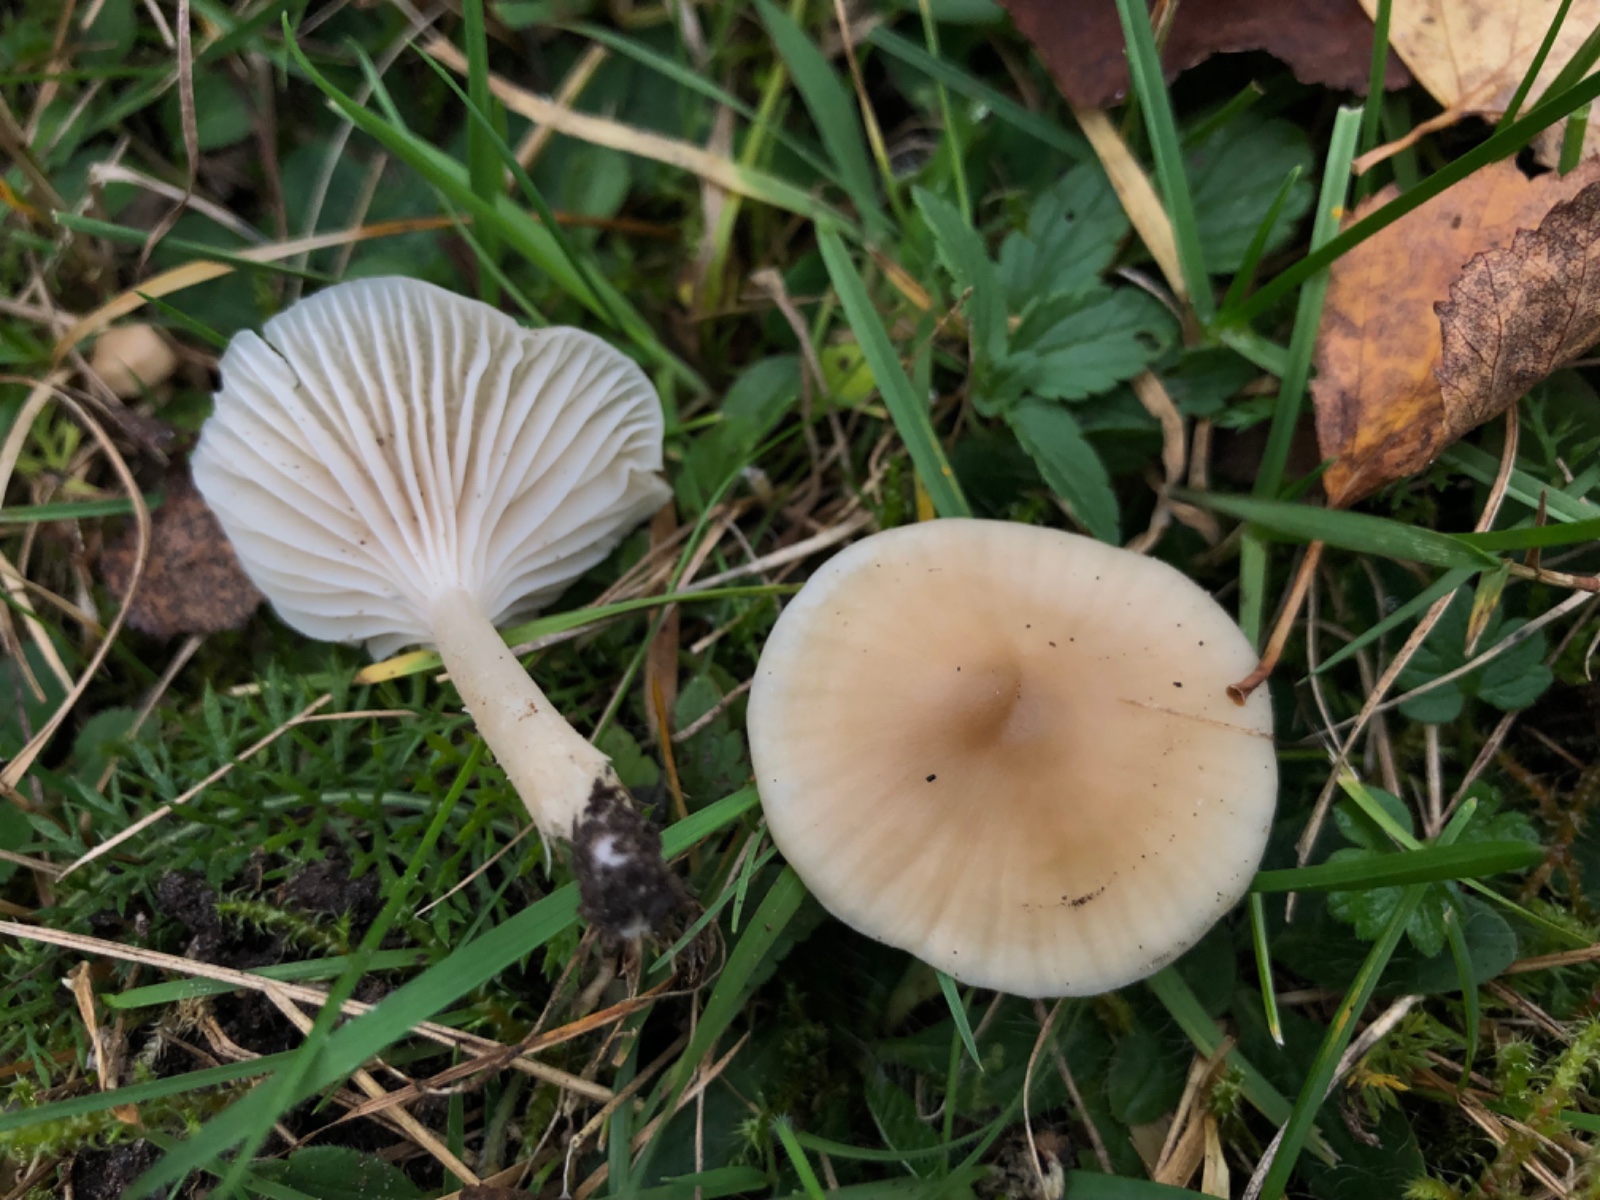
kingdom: Fungi
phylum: Basidiomycota
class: Agaricomycetes
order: Agaricales
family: Hygrophoraceae
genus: Cuphophyllus
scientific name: Cuphophyllus
